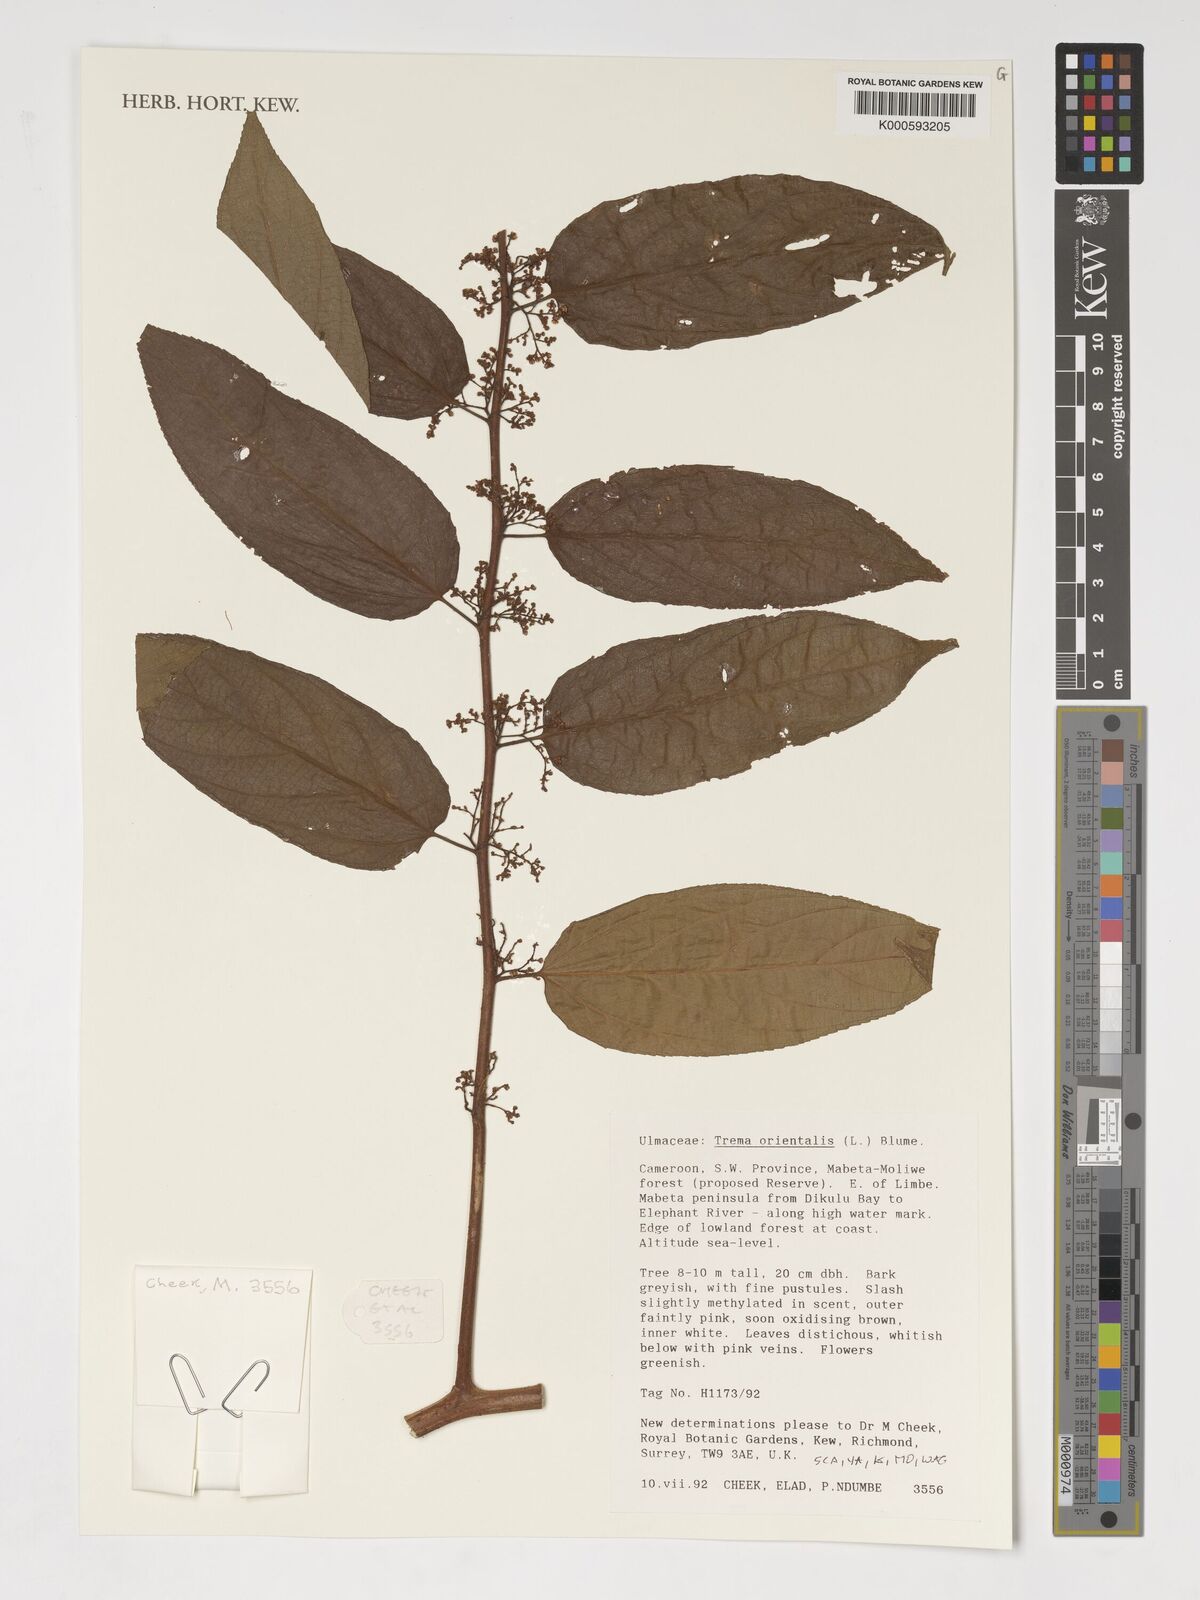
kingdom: Plantae
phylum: Tracheophyta
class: Magnoliopsida
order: Rosales
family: Cannabaceae
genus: Trema
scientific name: Trema orientale
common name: Indian charcoal tree
